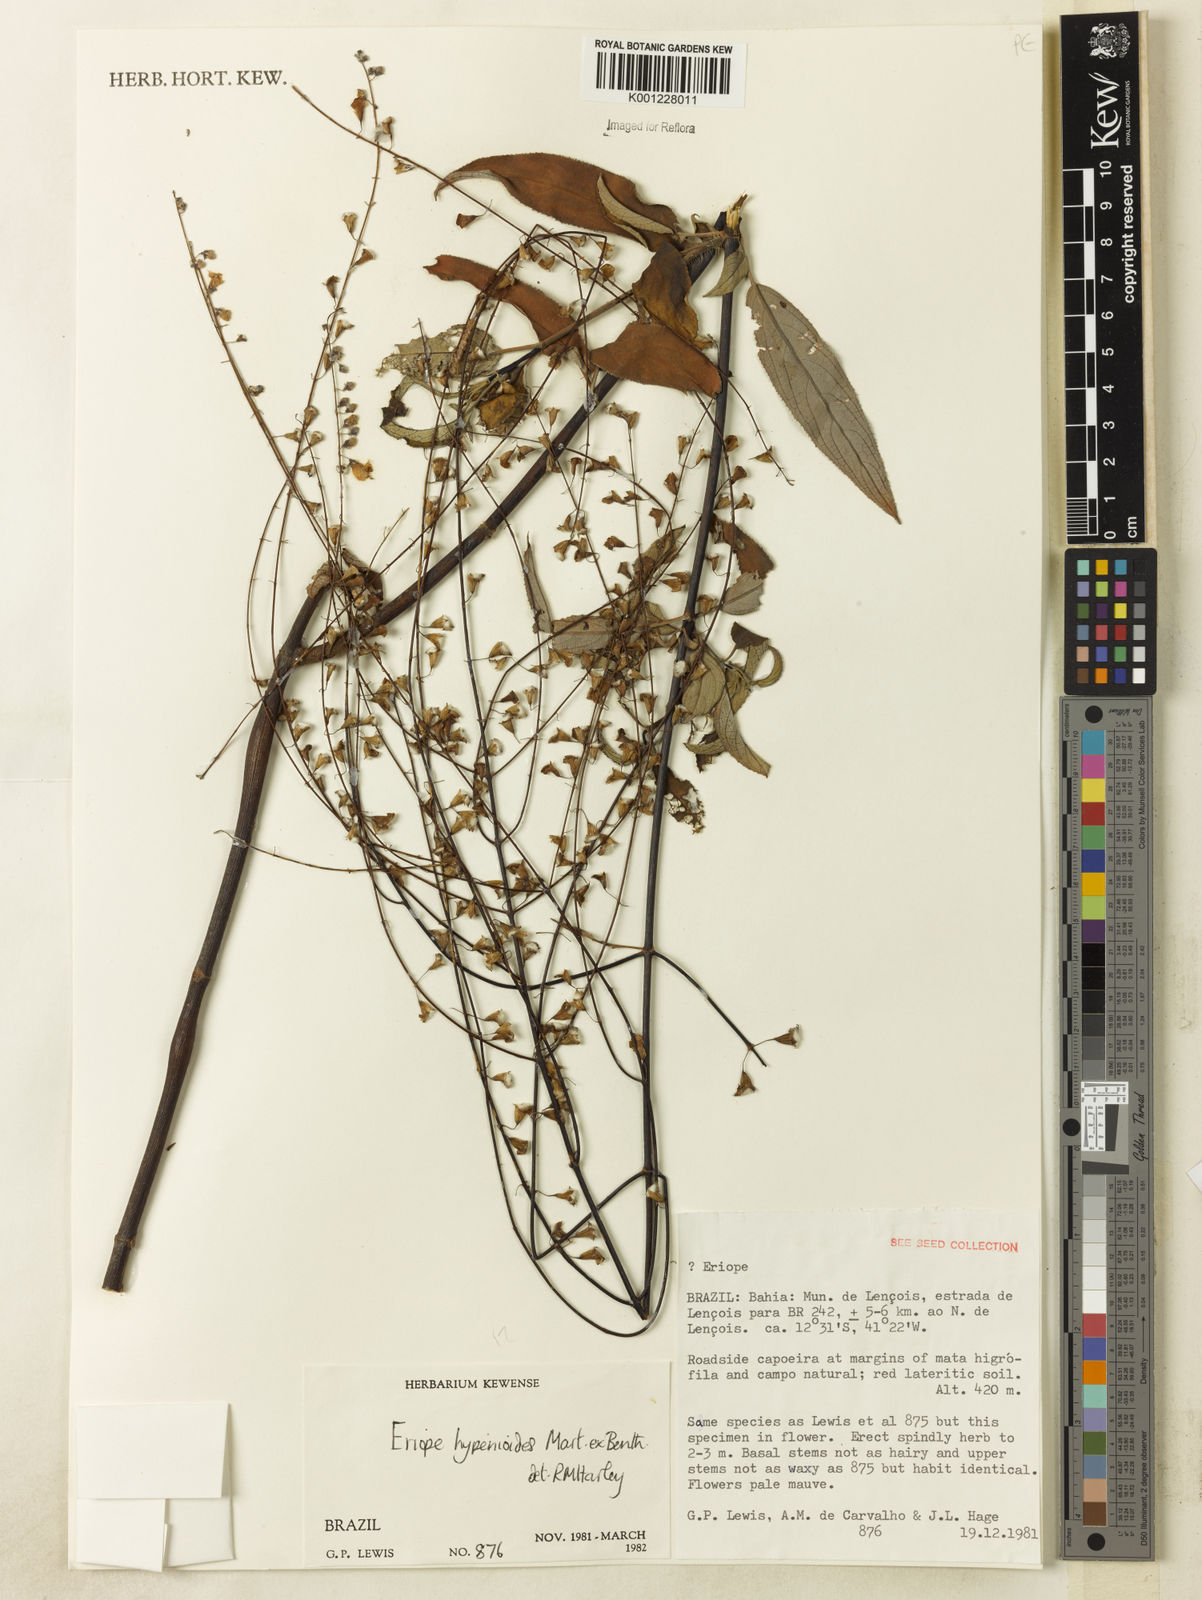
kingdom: Plantae
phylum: Tracheophyta
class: Magnoliopsida
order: Lamiales
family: Lamiaceae
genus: Eriope
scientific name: Eriope hypenioides
